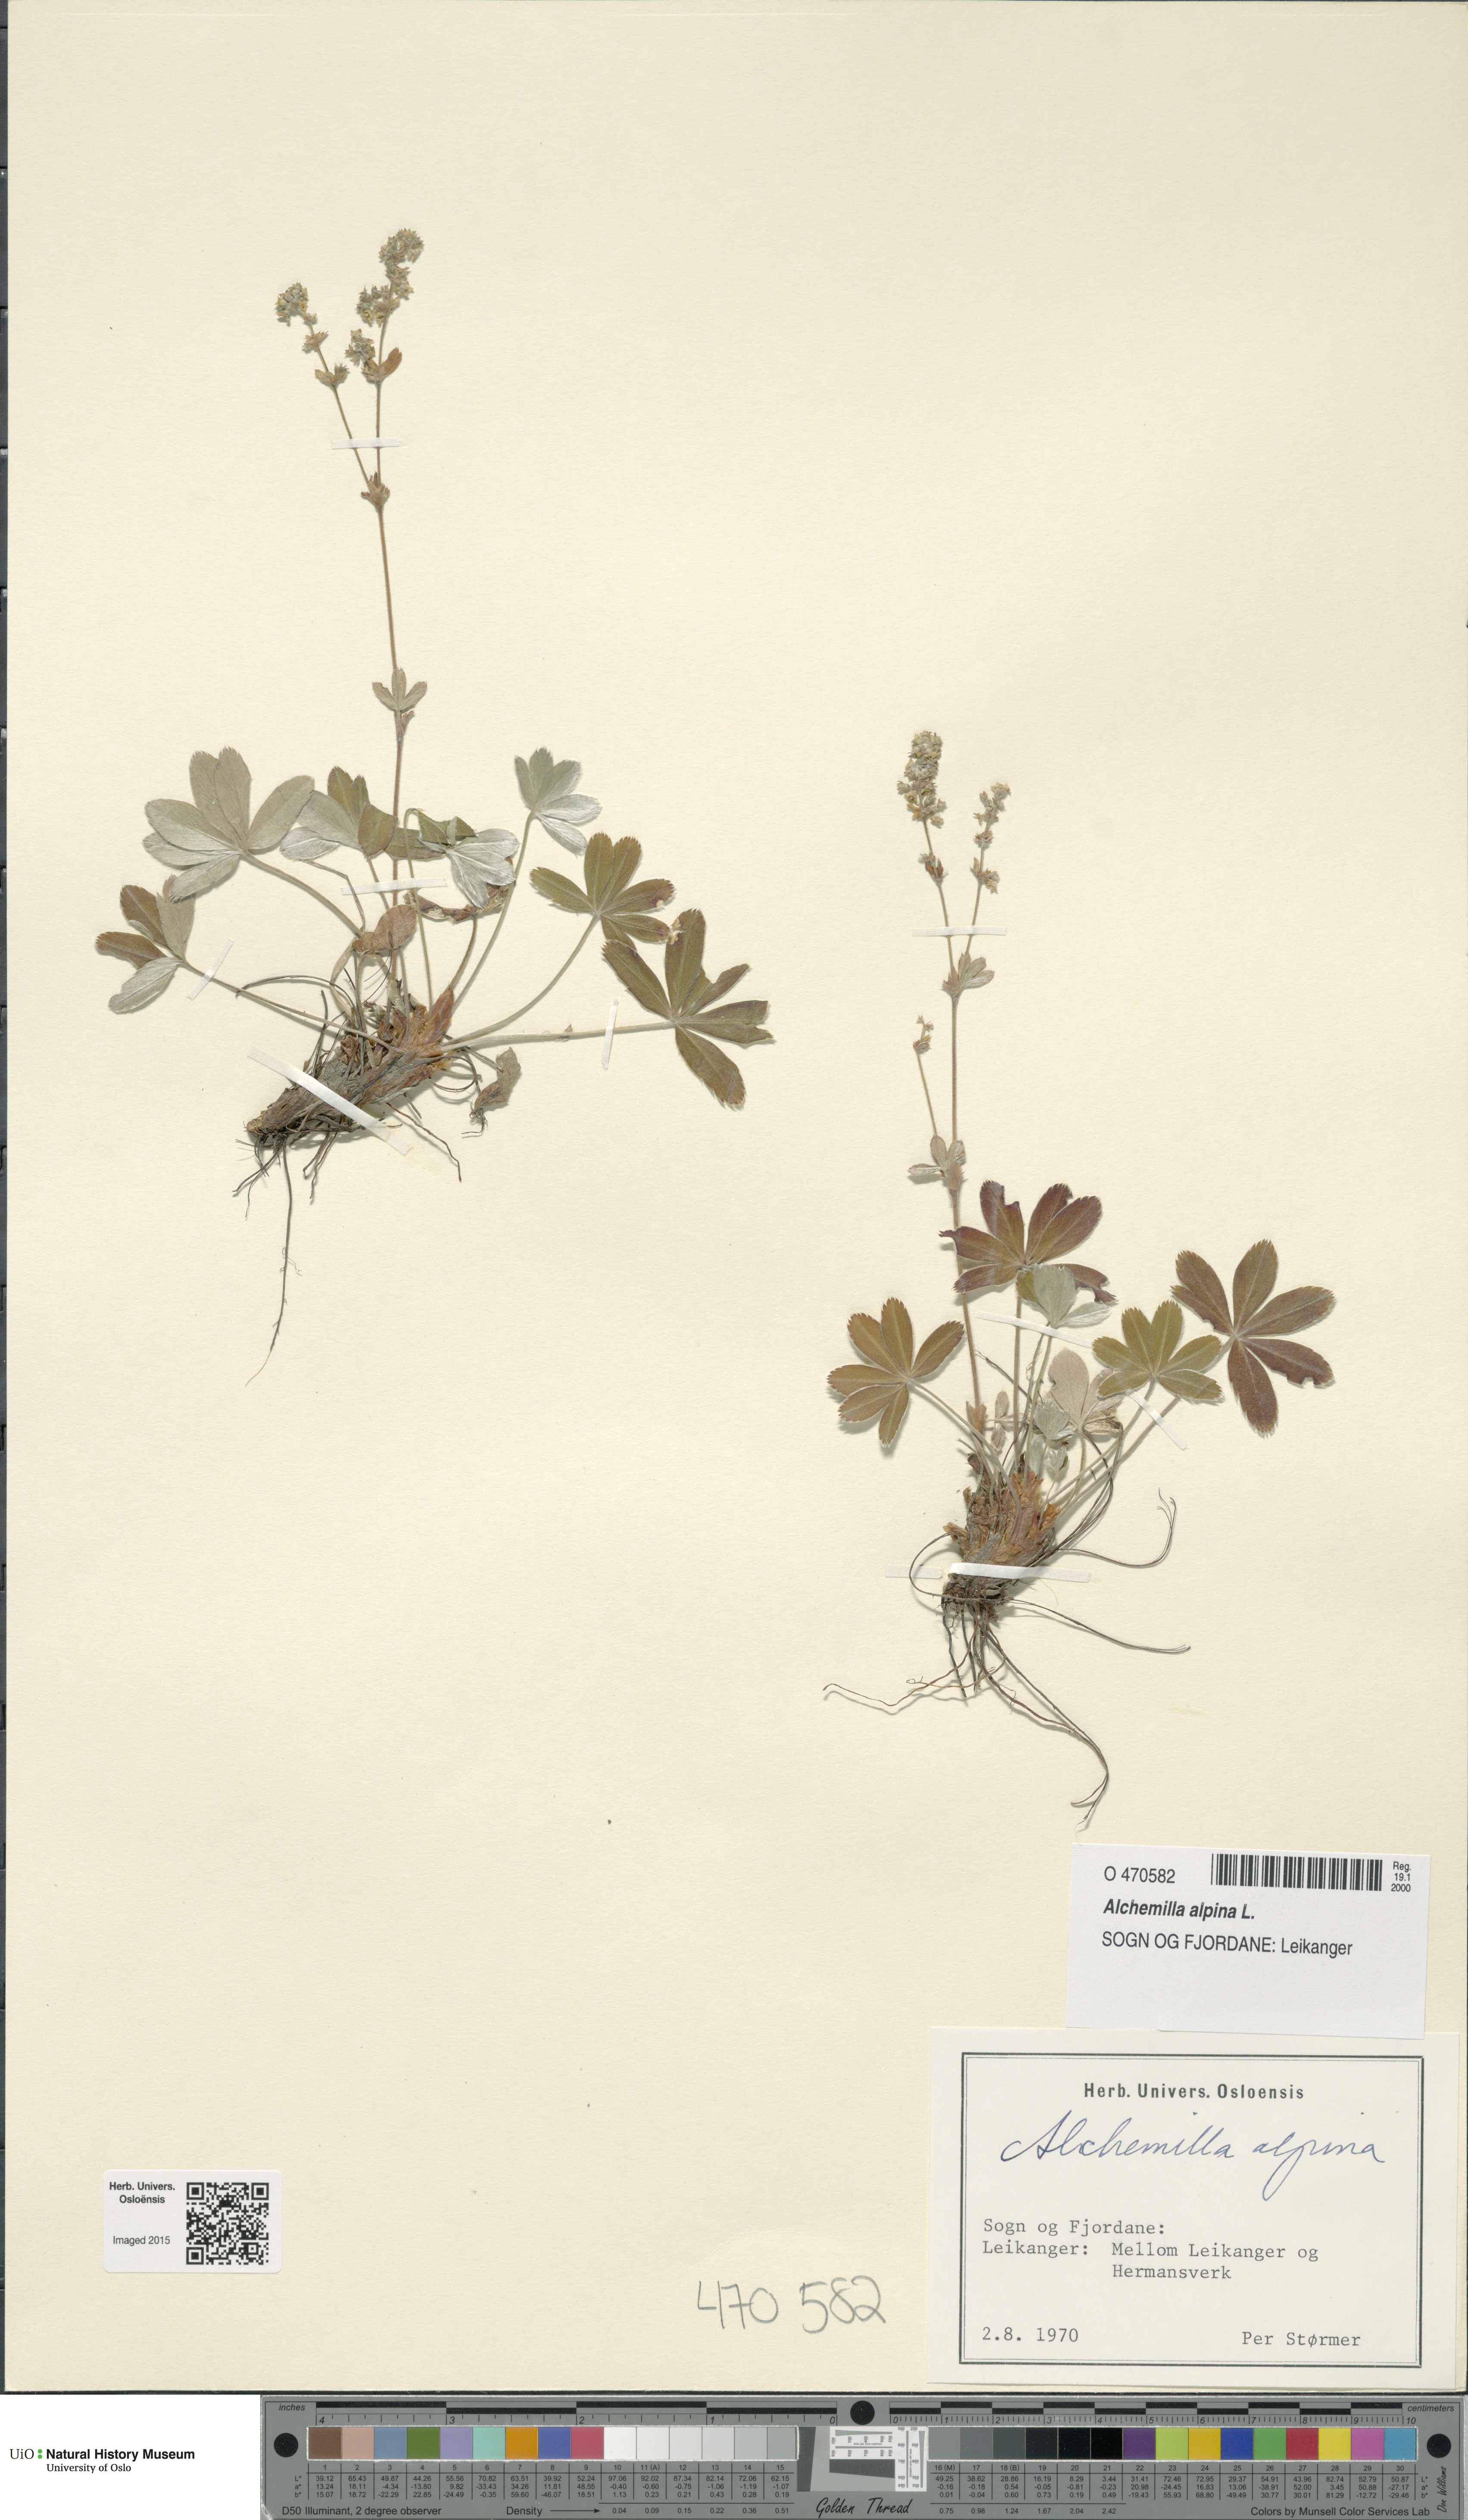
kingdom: Plantae
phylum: Tracheophyta
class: Magnoliopsida
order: Rosales
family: Rosaceae
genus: Alchemilla
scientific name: Alchemilla alpina
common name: Alpine lady's-mantle
